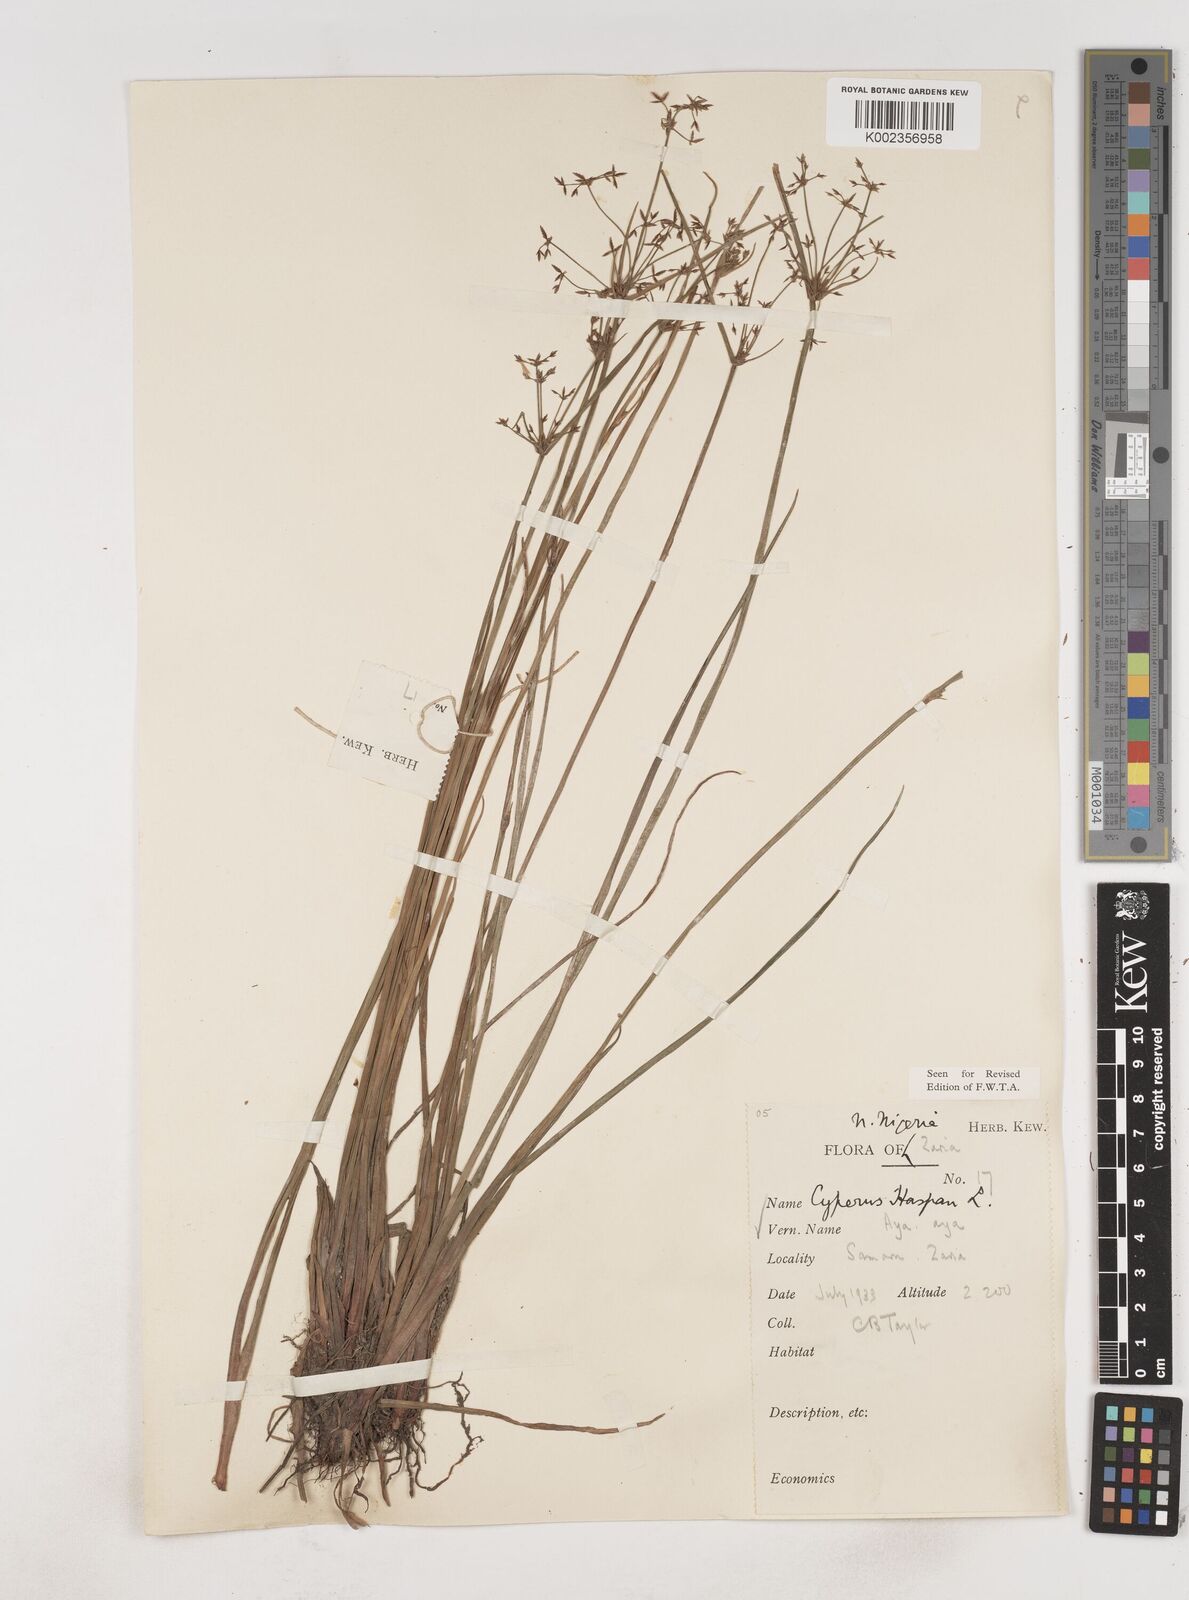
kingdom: Plantae
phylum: Tracheophyta
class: Liliopsida
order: Poales
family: Cyperaceae
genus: Cyperus
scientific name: Cyperus haspan
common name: Haspan flatsedge
